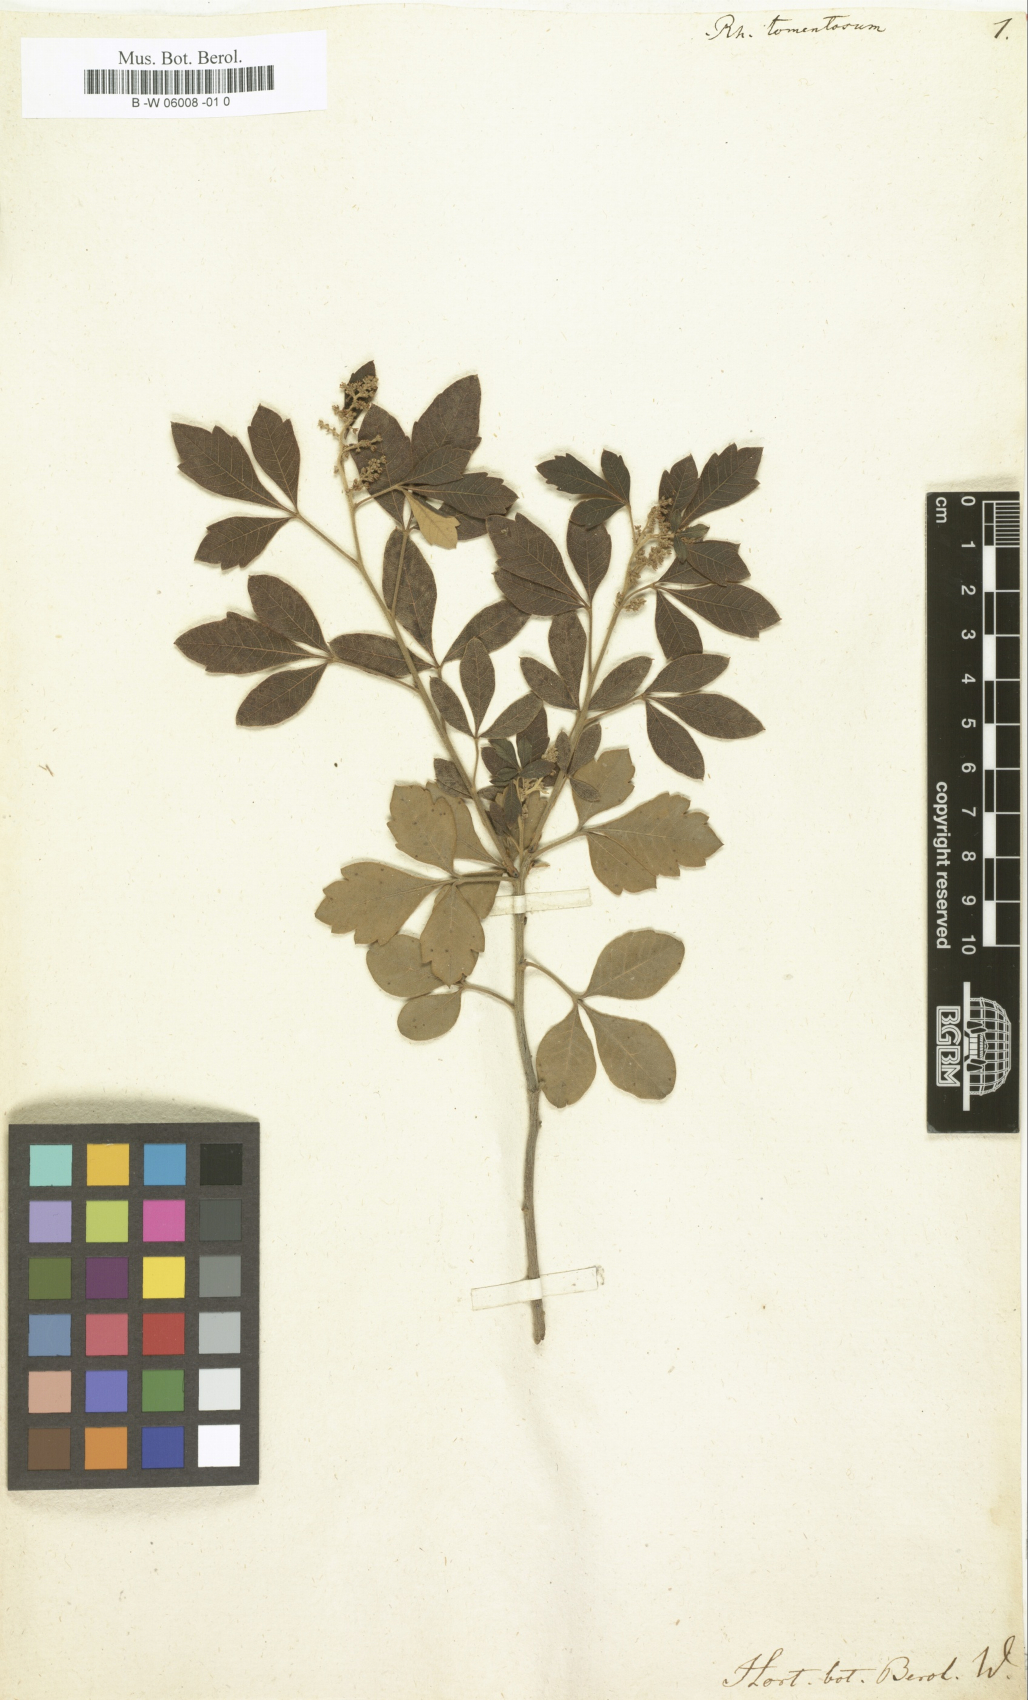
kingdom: Plantae
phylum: Tracheophyta
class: Magnoliopsida
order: Sapindales
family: Anacardiaceae
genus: Searsia
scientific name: Searsia tomentosa
